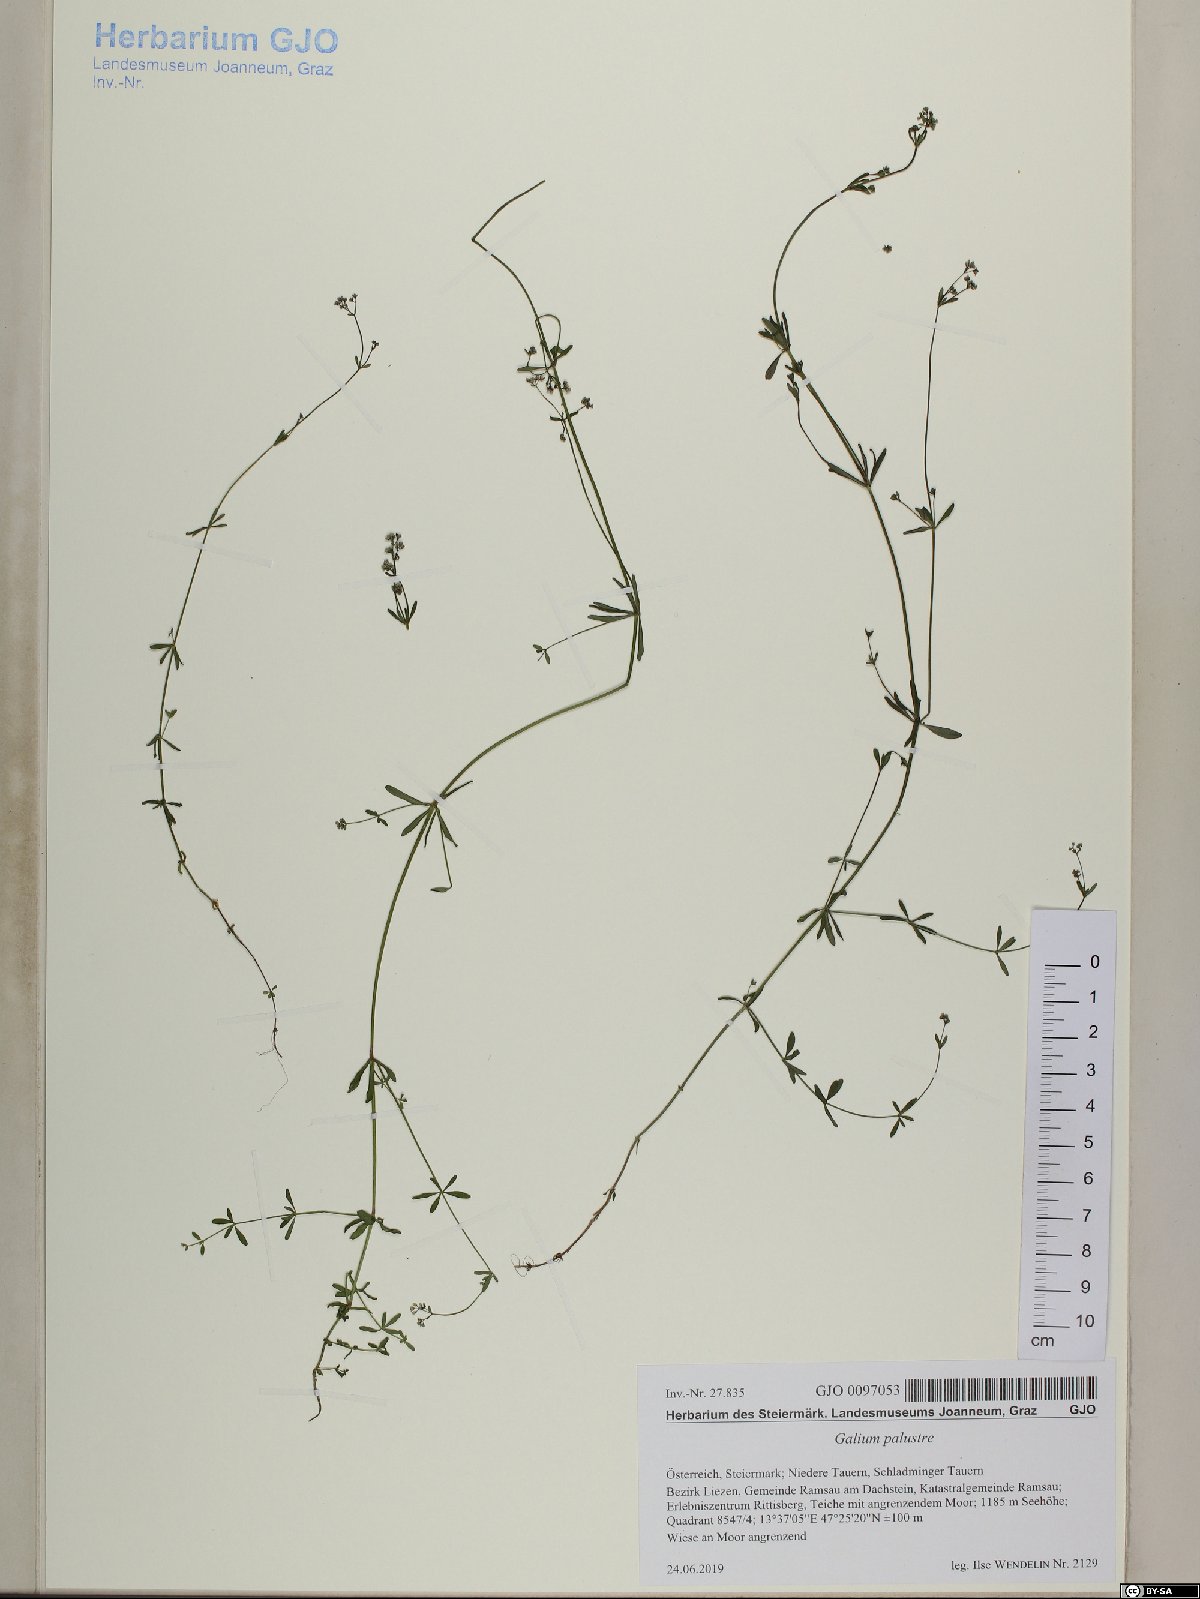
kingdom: Plantae
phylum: Tracheophyta
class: Magnoliopsida
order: Gentianales
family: Rubiaceae
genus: Galium
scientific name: Galium palustre
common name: Common marsh-bedstraw
